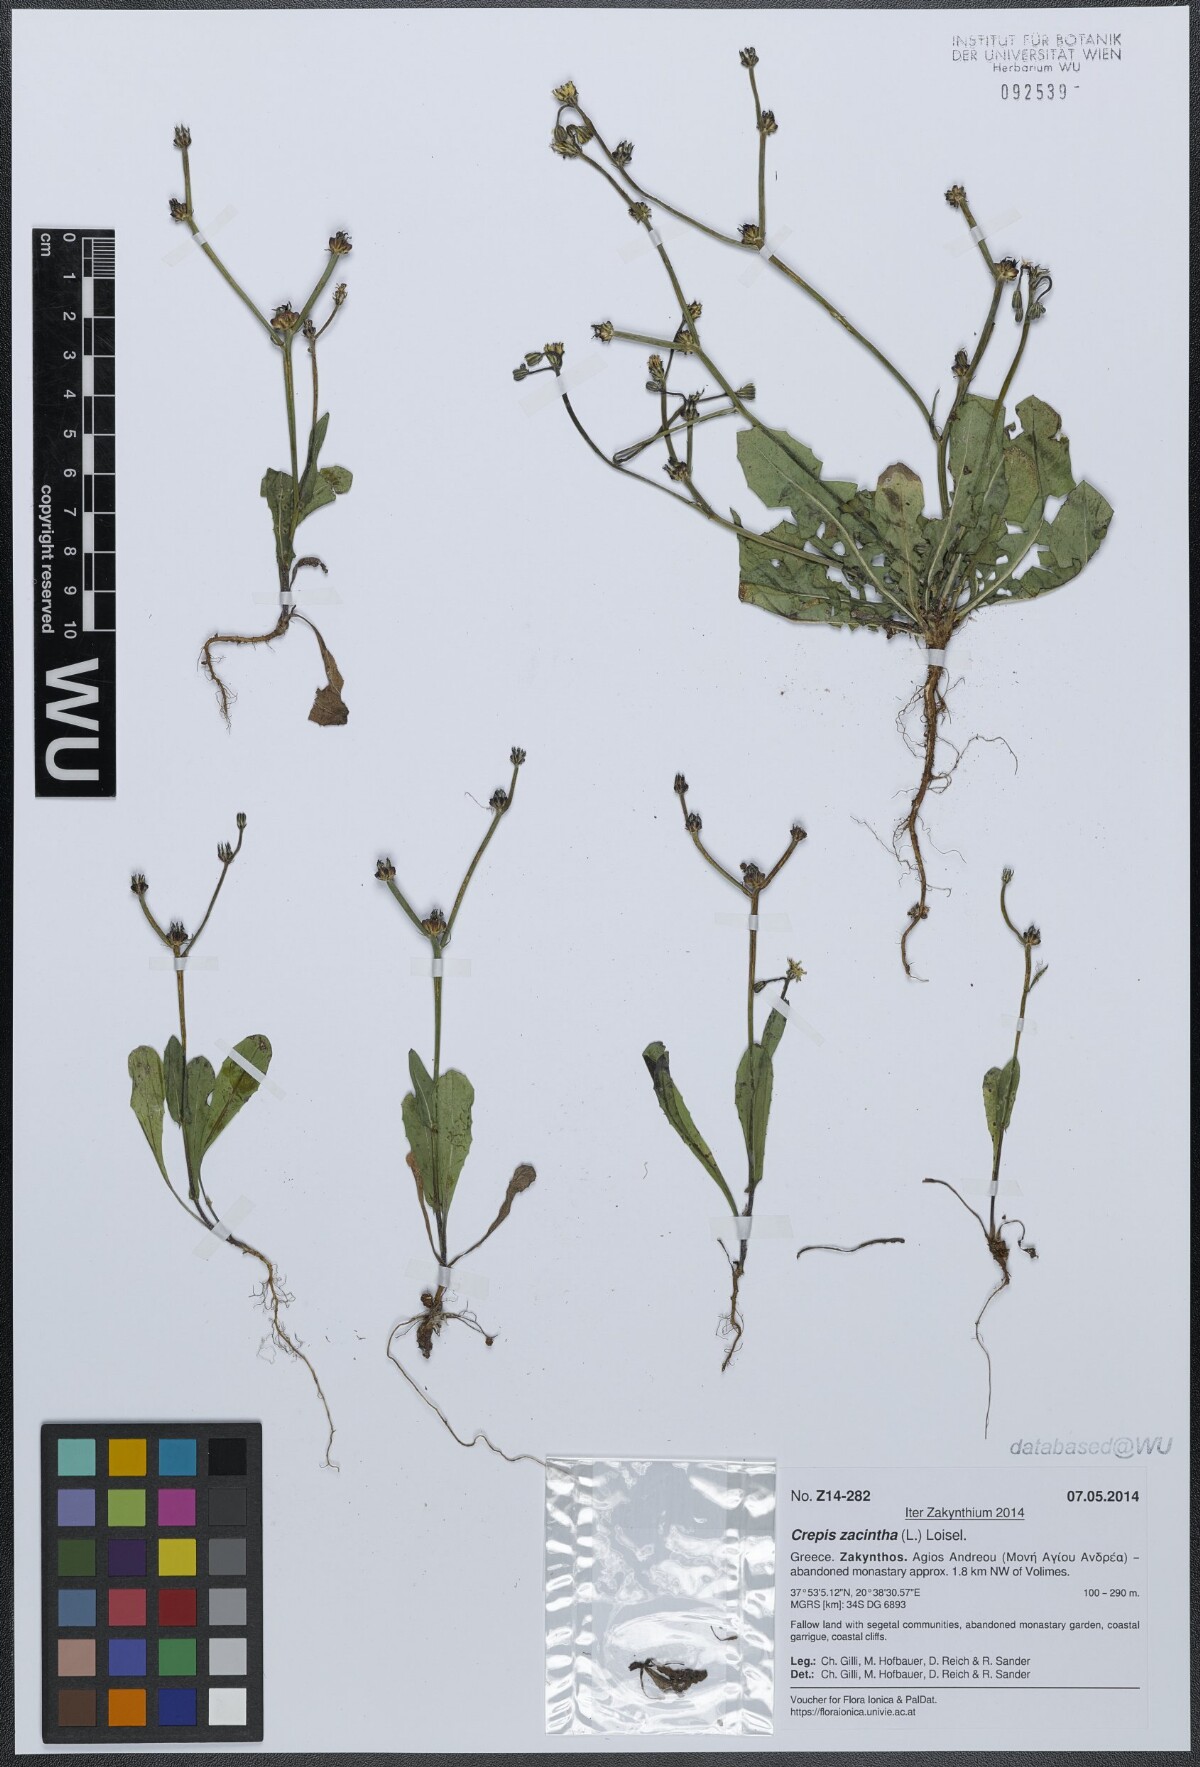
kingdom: Plantae
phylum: Tracheophyta
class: Magnoliopsida
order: Asterales
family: Asteraceae
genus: Crepis
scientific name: Crepis zacintha
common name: Striped hawksbeard
